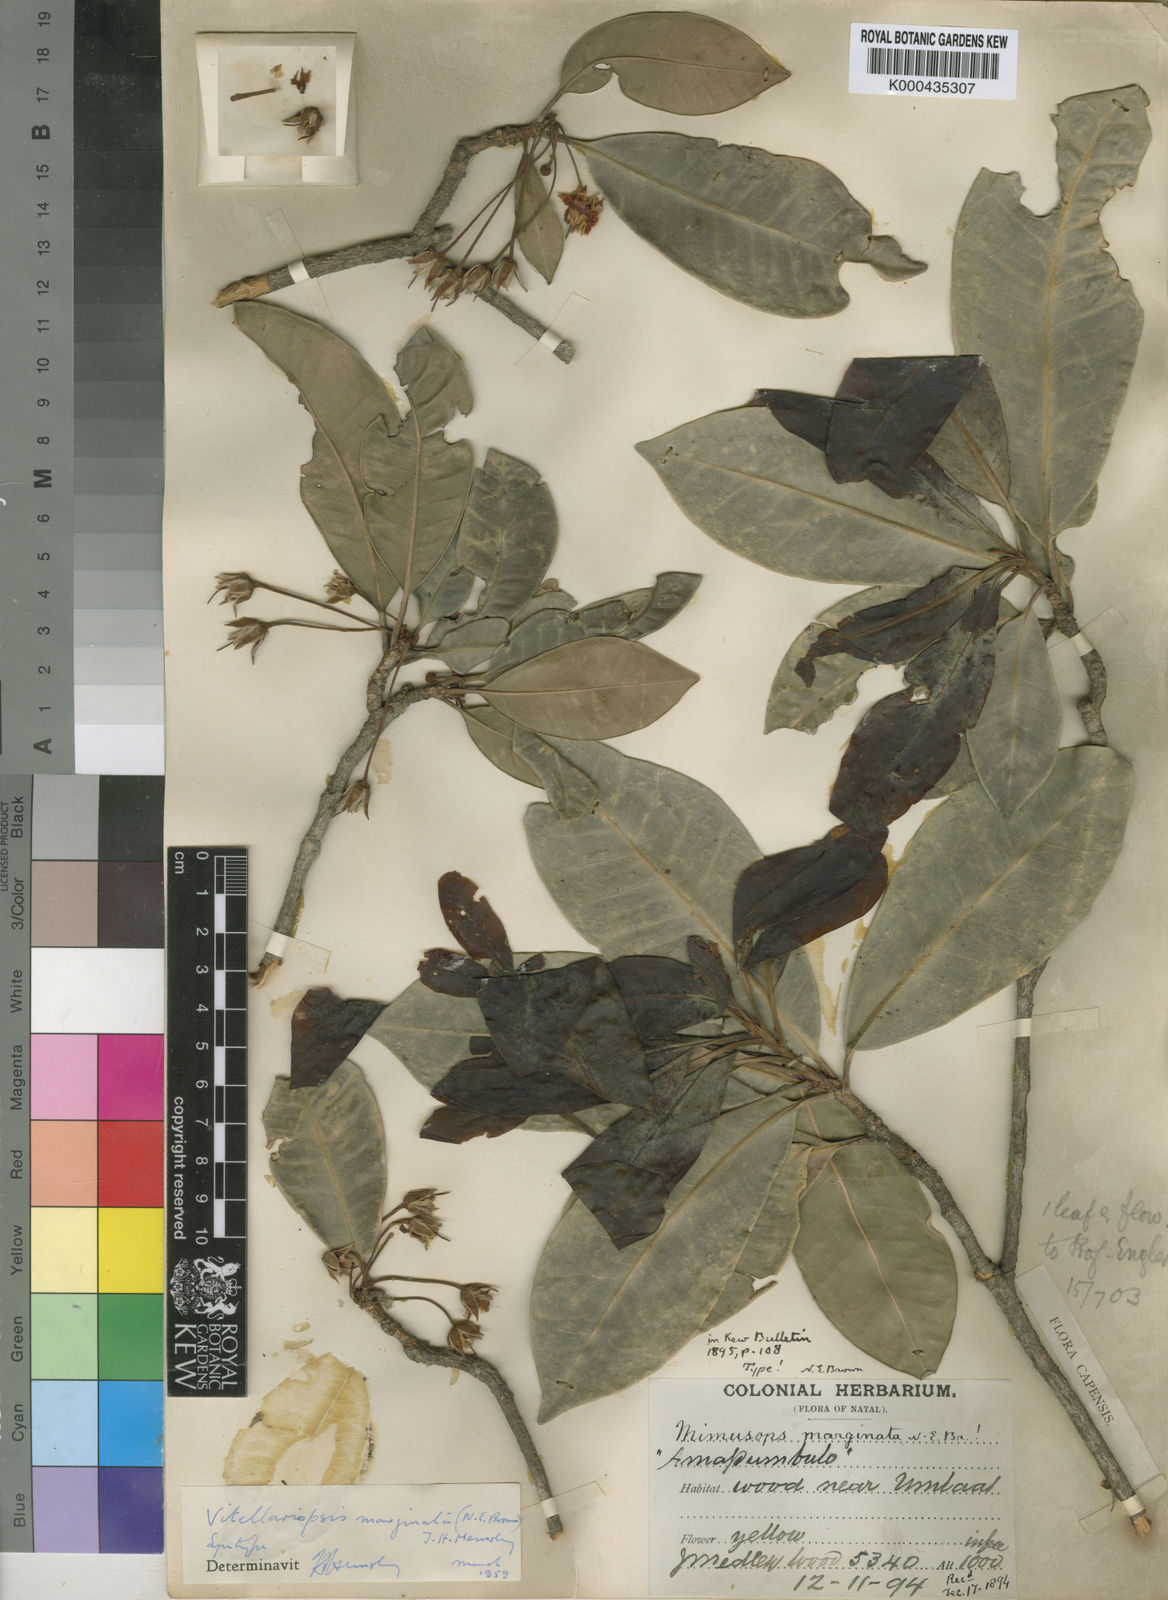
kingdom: Plantae
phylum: Tracheophyta
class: Magnoliopsida
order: Ericales
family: Sapotaceae
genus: Vitellariopsis
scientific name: Vitellariopsis marginata
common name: Flatcap milkwood
